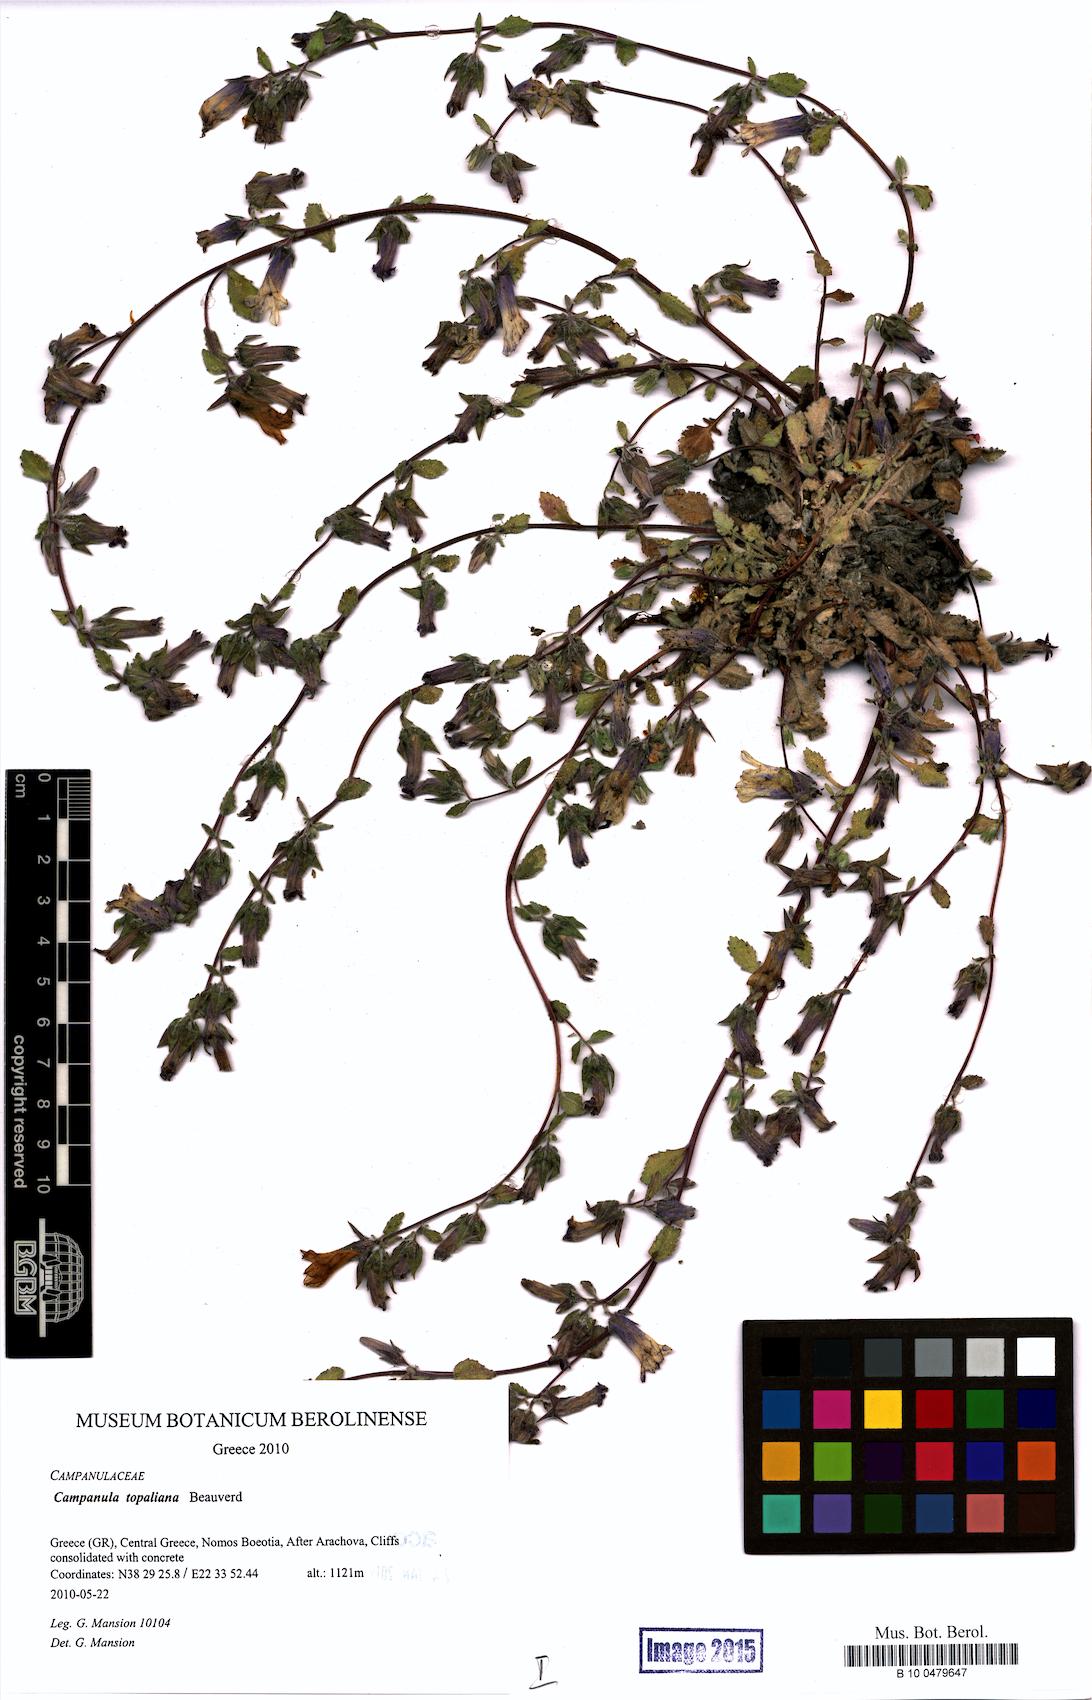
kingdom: Plantae
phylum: Tracheophyta
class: Magnoliopsida
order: Asterales
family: Campanulaceae
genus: Campanula
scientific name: Campanula topaliana
